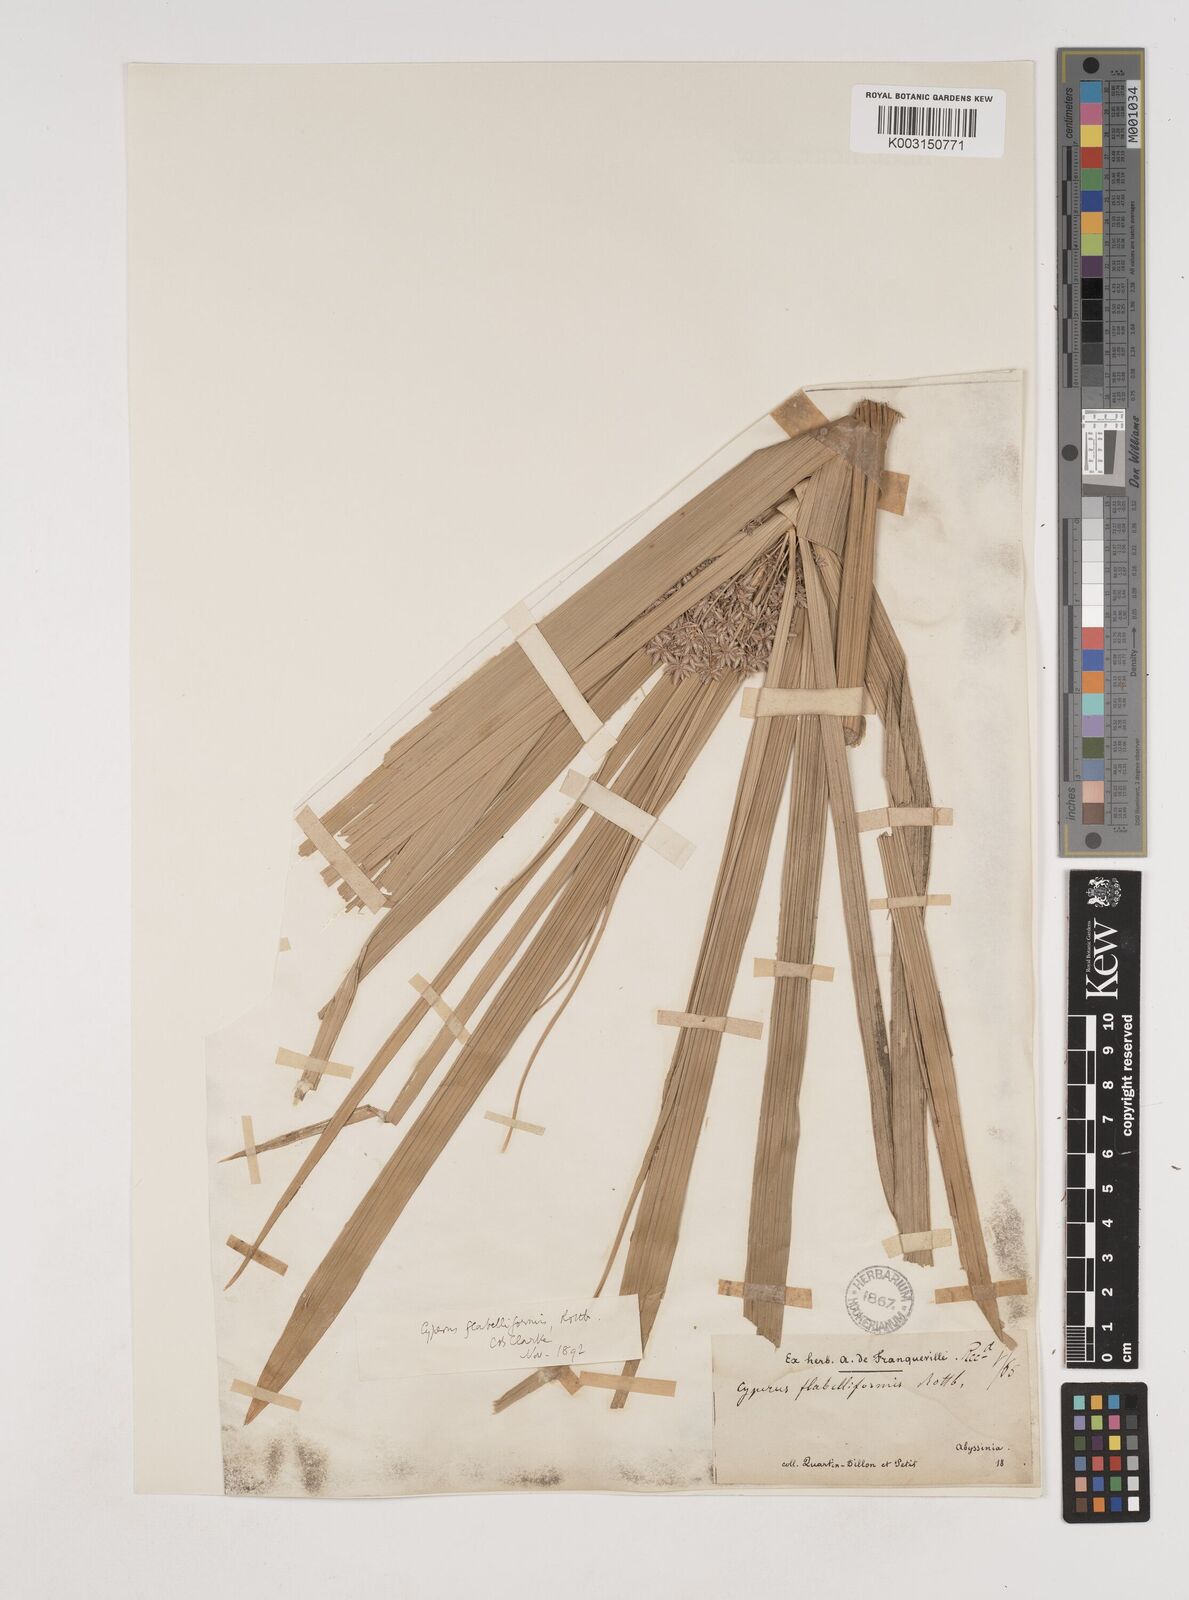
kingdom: Plantae
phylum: Tracheophyta
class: Liliopsida
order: Poales
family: Cyperaceae
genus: Cyperus
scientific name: Cyperus alternifolius
